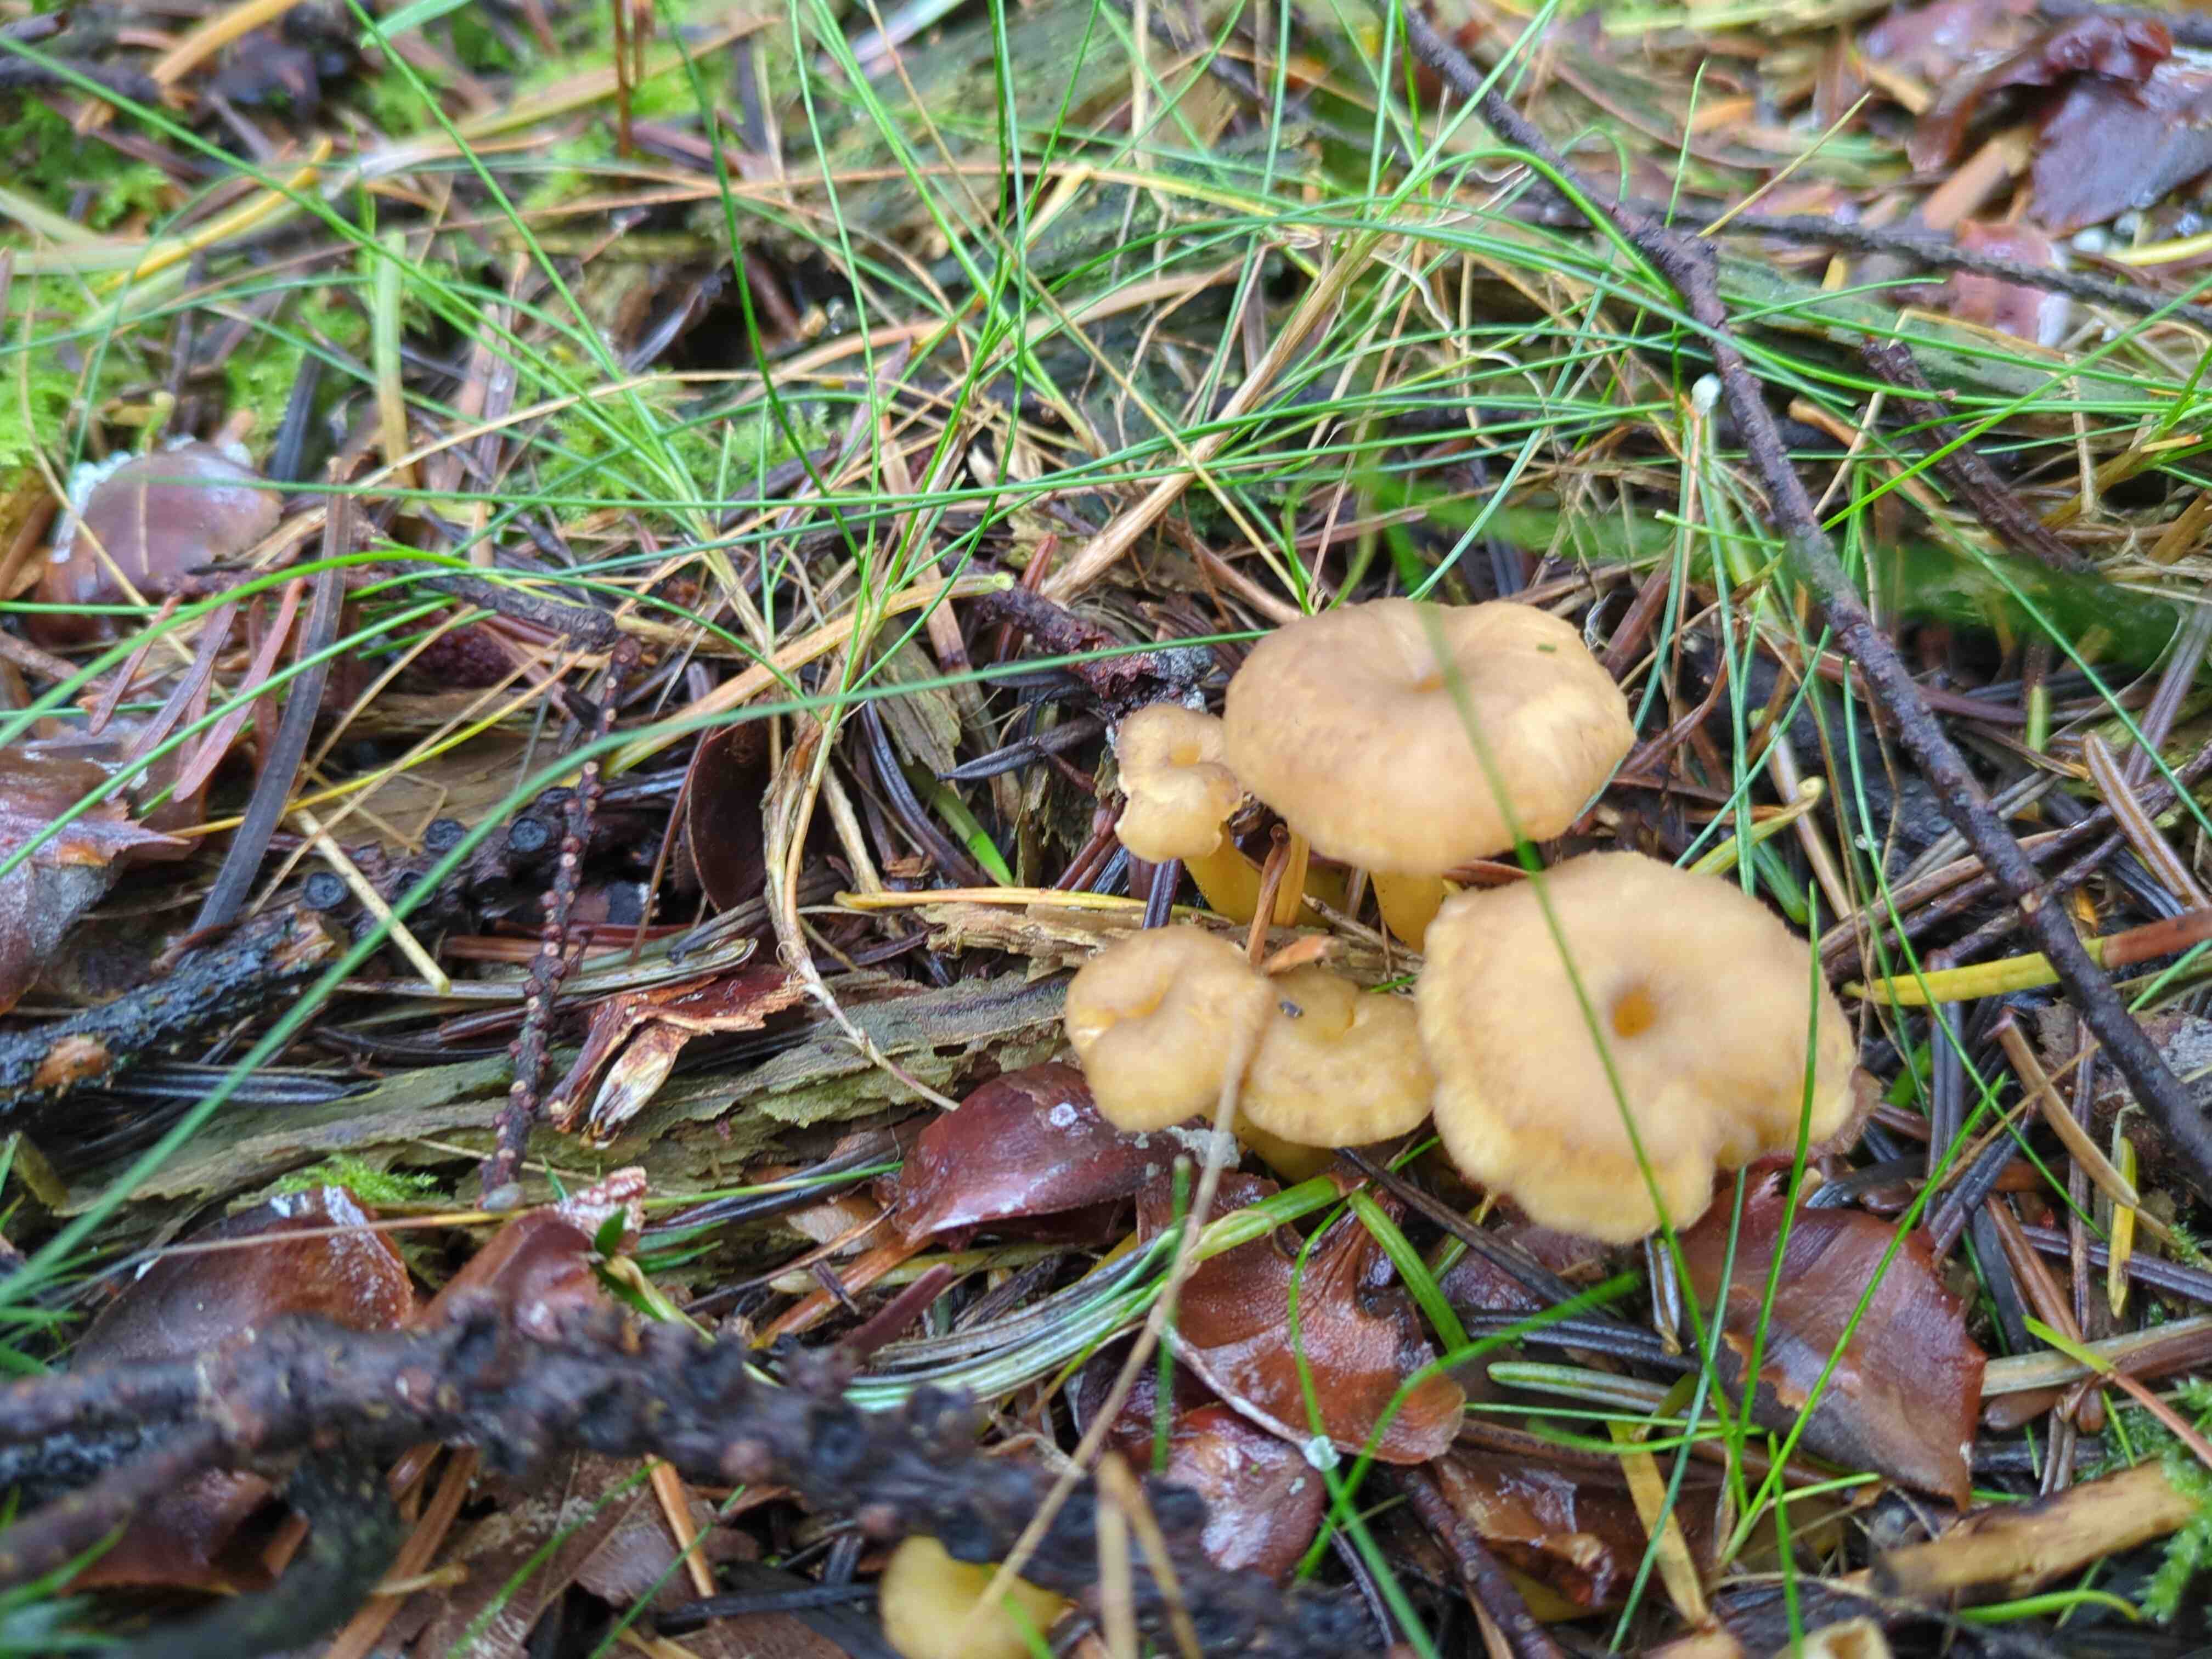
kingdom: Fungi
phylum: Basidiomycota
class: Agaricomycetes
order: Cantharellales
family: Hydnaceae
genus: Craterellus
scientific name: Craterellus tubaeformis
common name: tragt-kantarel
